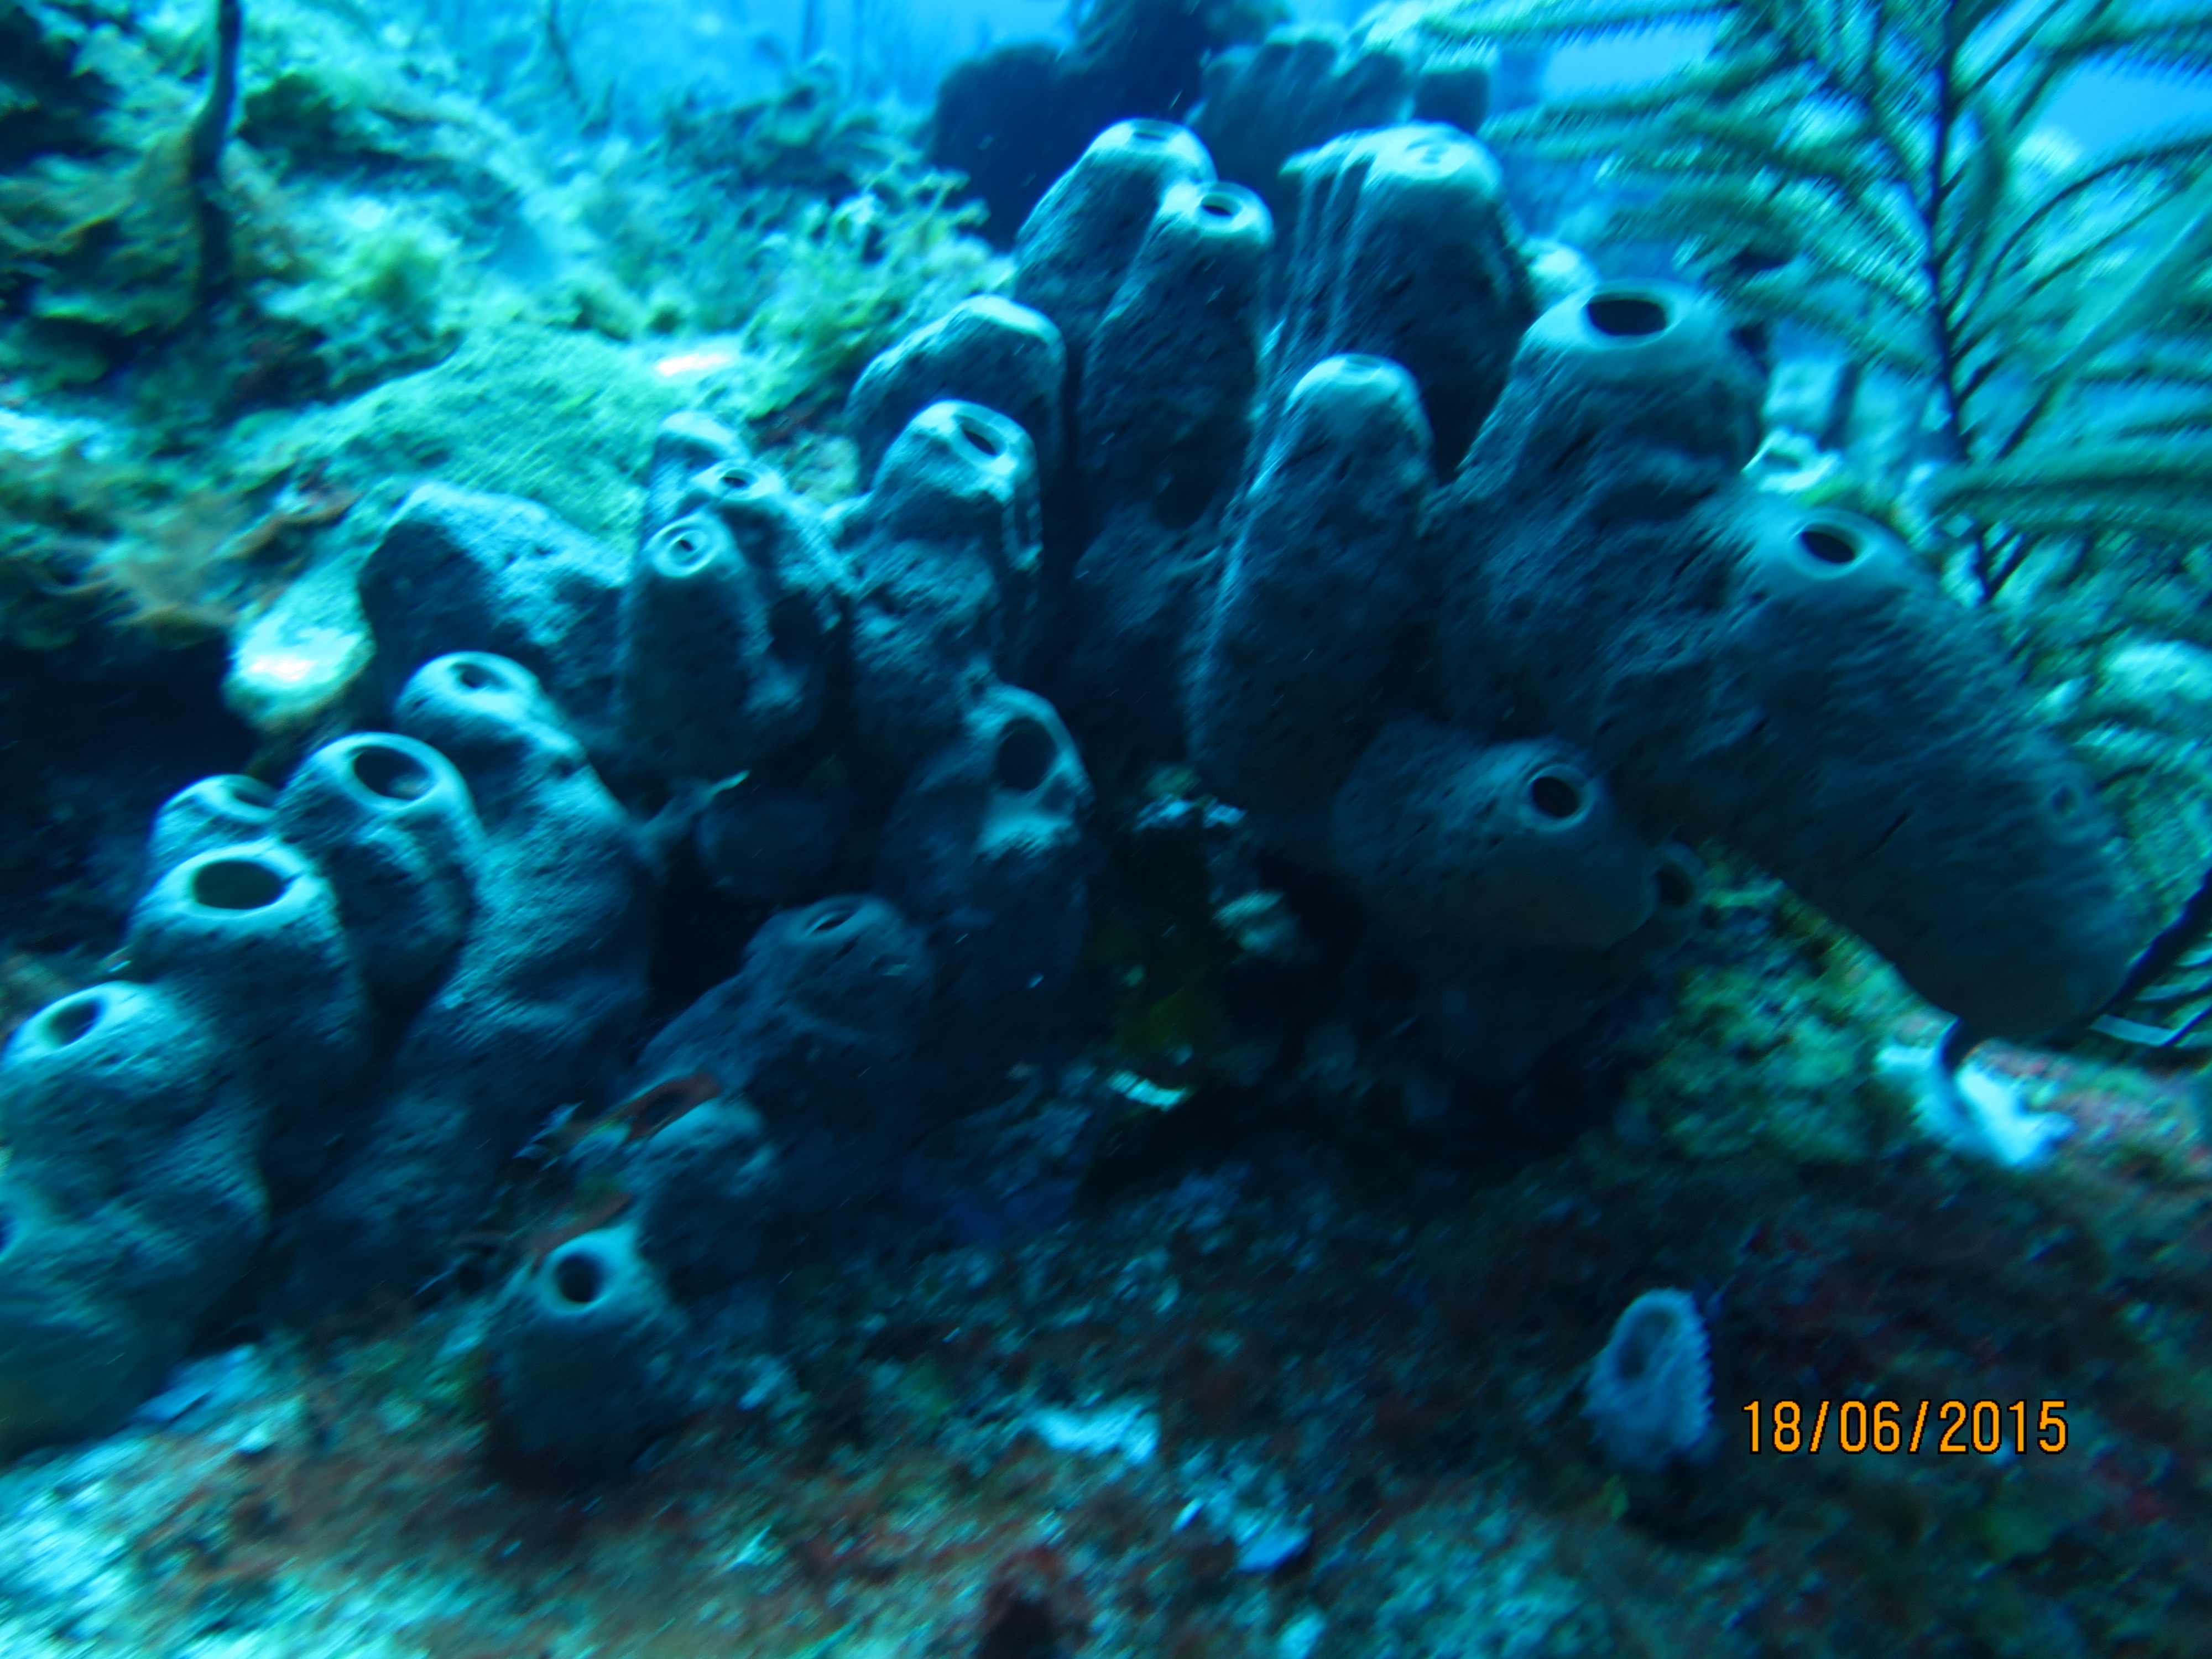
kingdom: Animalia
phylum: Porifera
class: Demospongiae
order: Agelasida
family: Agelasidae
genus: Agelas
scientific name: Agelas conifera
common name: Brown tube sponge
